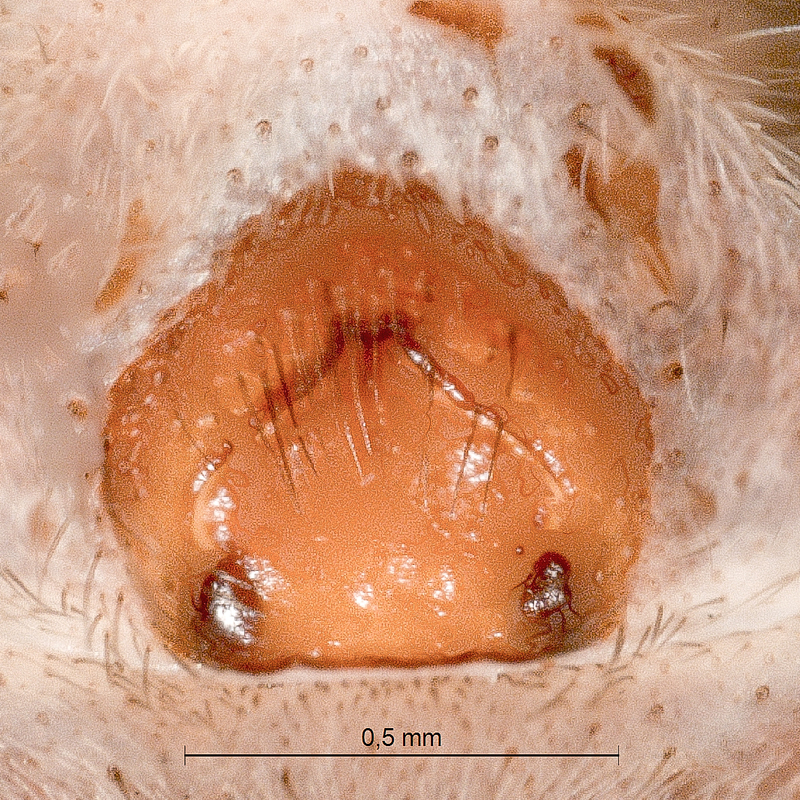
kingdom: Animalia
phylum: Arthropoda
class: Arachnida
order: Araneae
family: Lycosidae
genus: Alopecosa
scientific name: Alopecosa cursor
